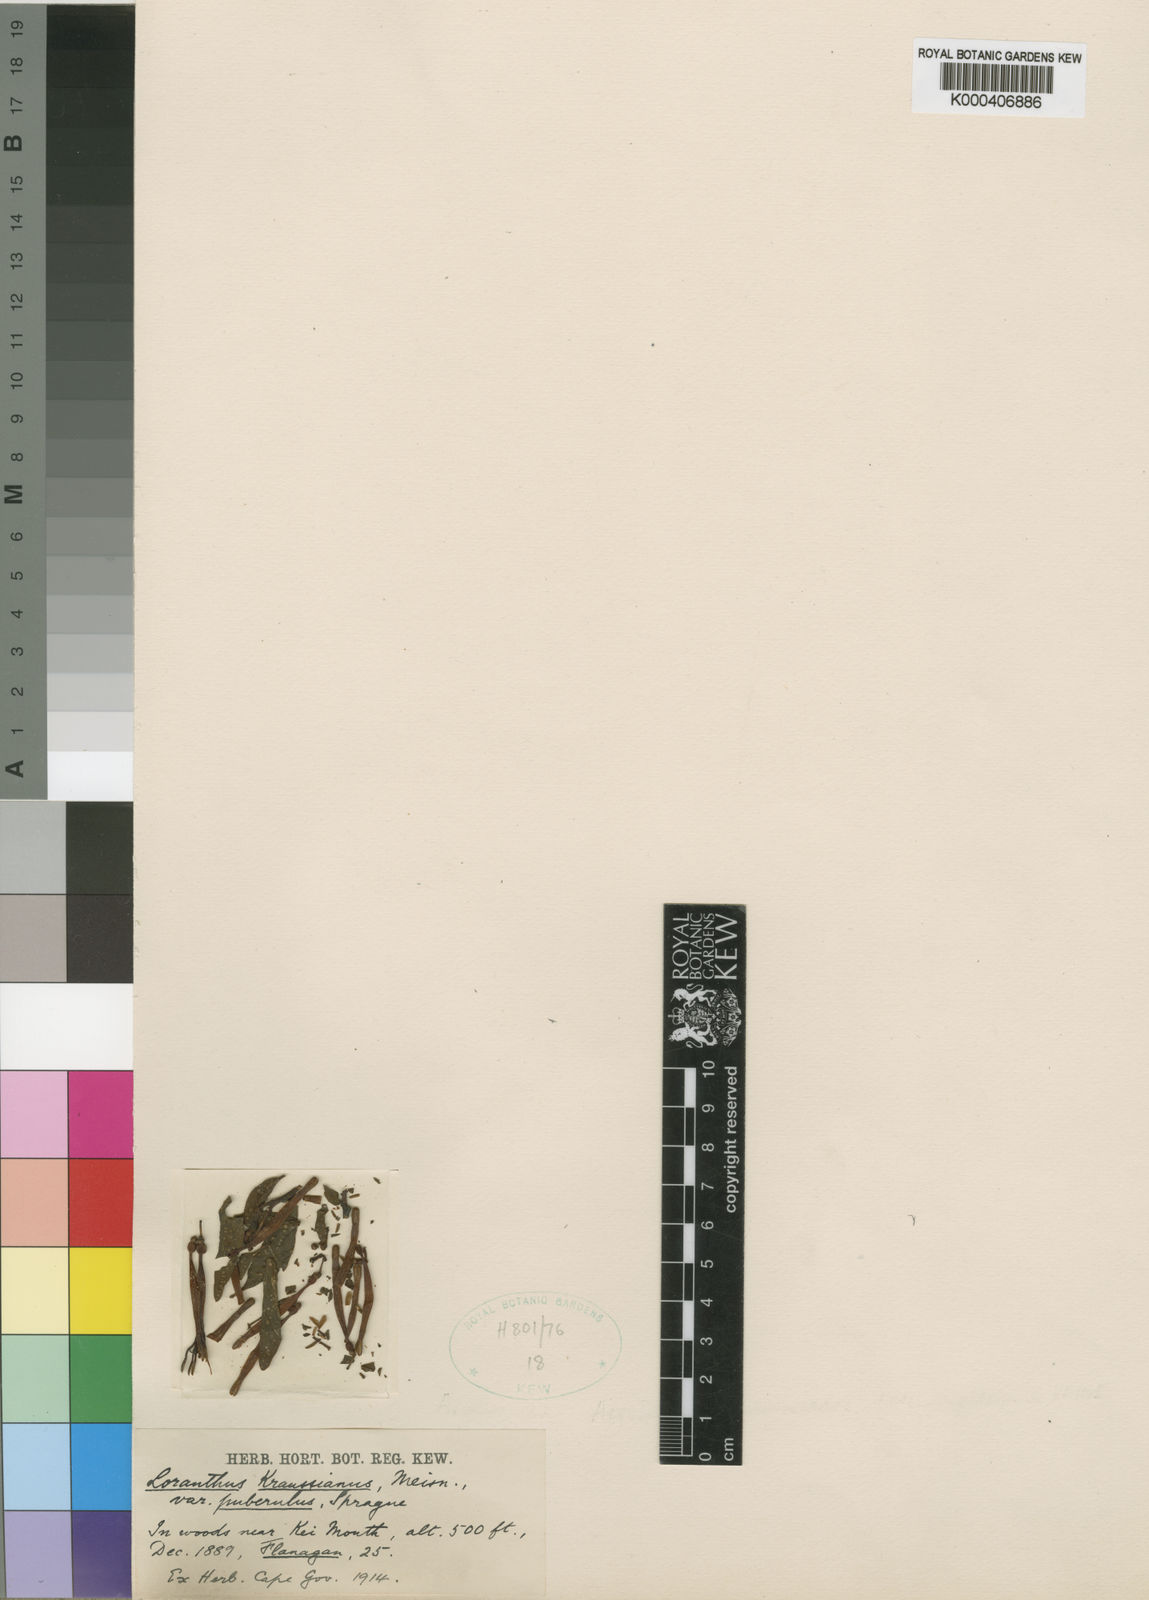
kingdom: Plantae
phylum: Tracheophyta
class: Magnoliopsida
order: Santalales
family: Loranthaceae
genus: Agelanthus
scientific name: Agelanthus prunifolius
